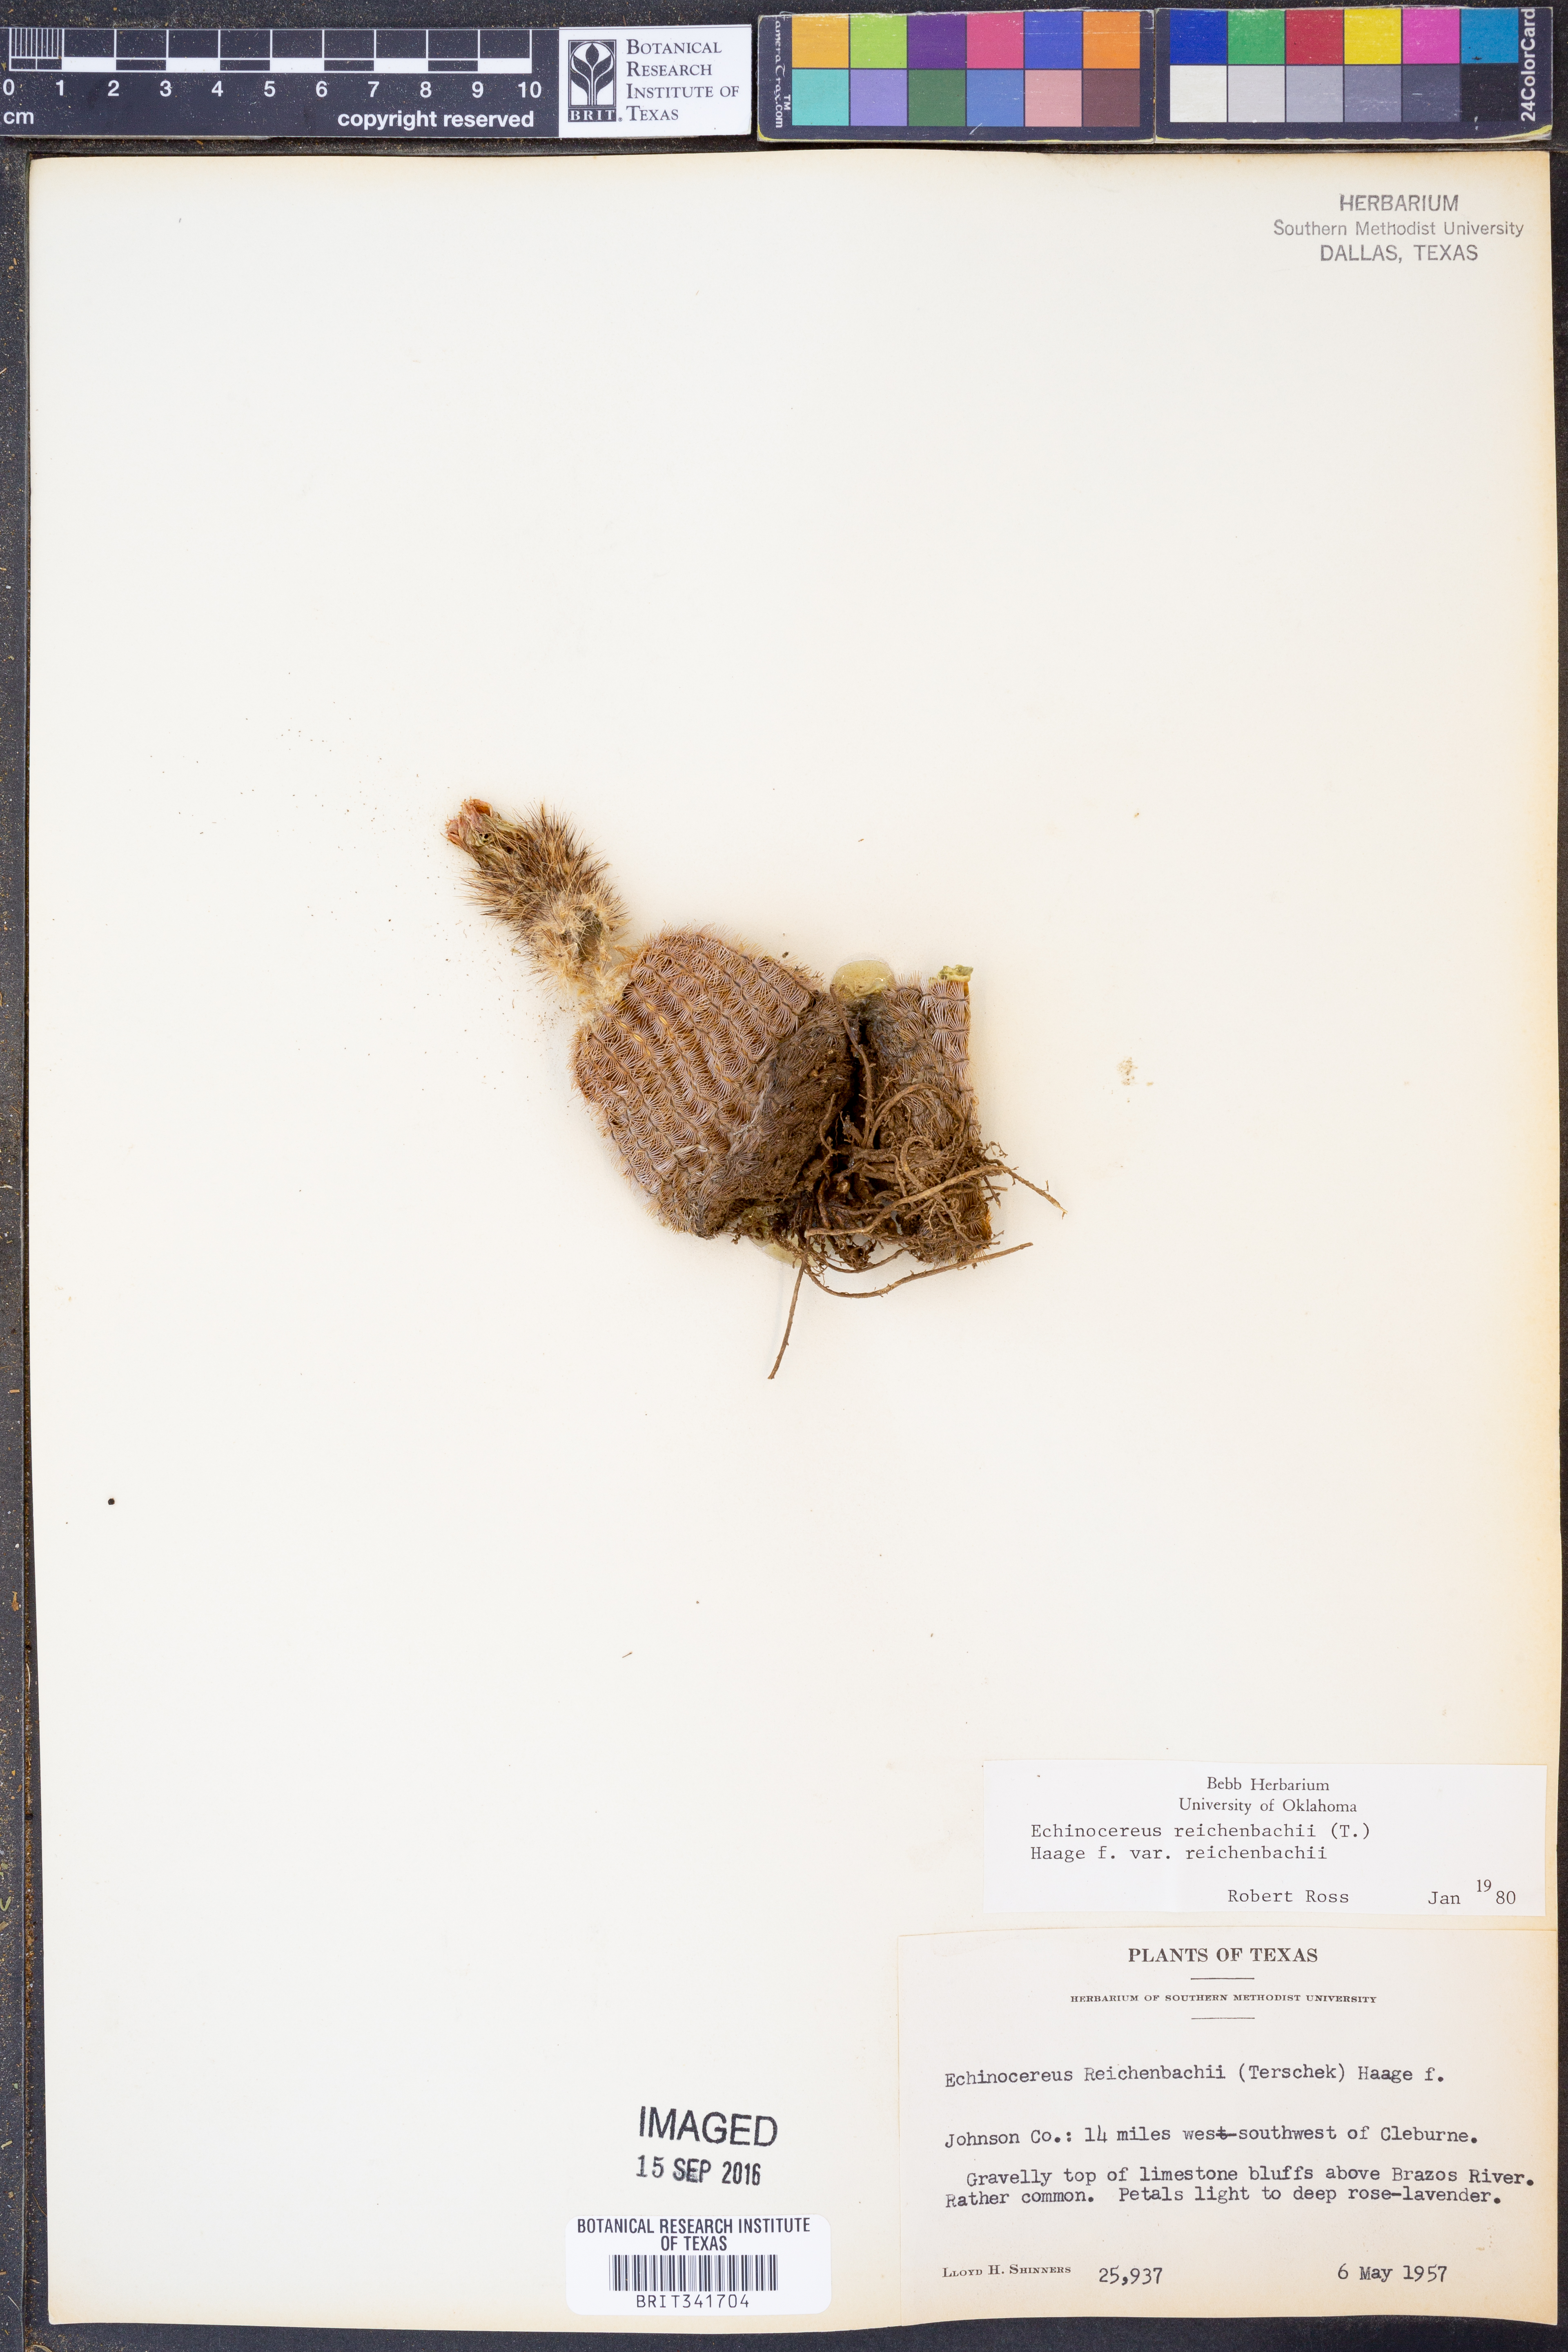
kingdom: Plantae
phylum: Tracheophyta
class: Magnoliopsida
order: Caryophyllales
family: Cactaceae
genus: Echinocereus
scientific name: Echinocereus reichenbachii
